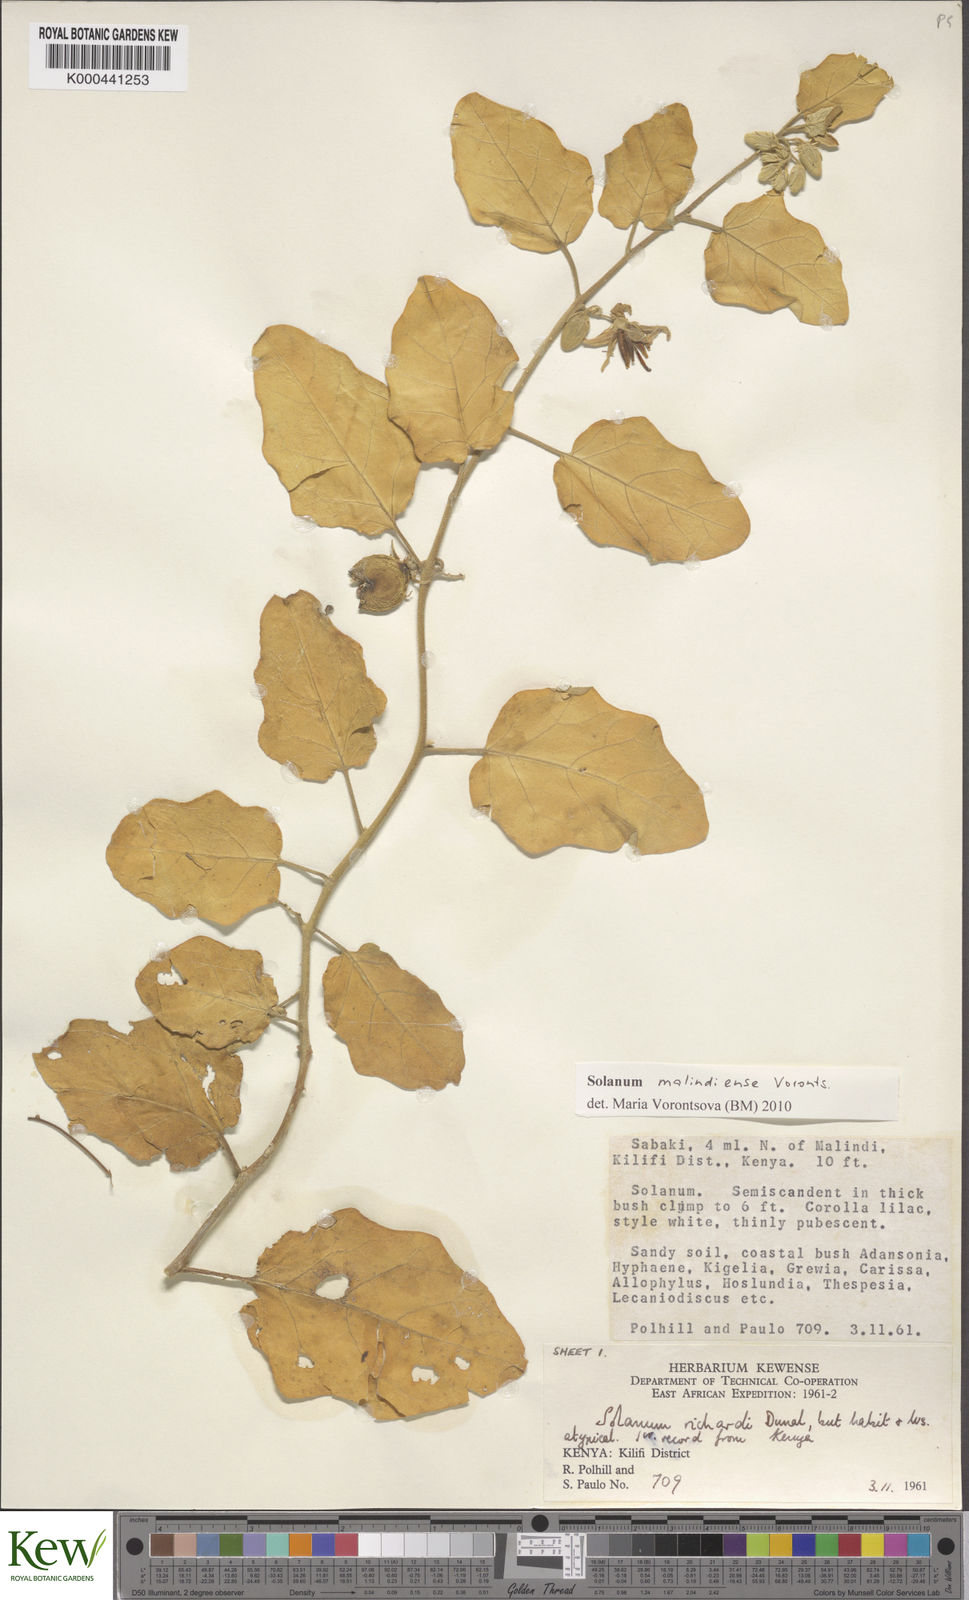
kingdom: Plantae
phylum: Tracheophyta
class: Magnoliopsida
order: Solanales
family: Solanaceae
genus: Solanum
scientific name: Solanum malindiense
